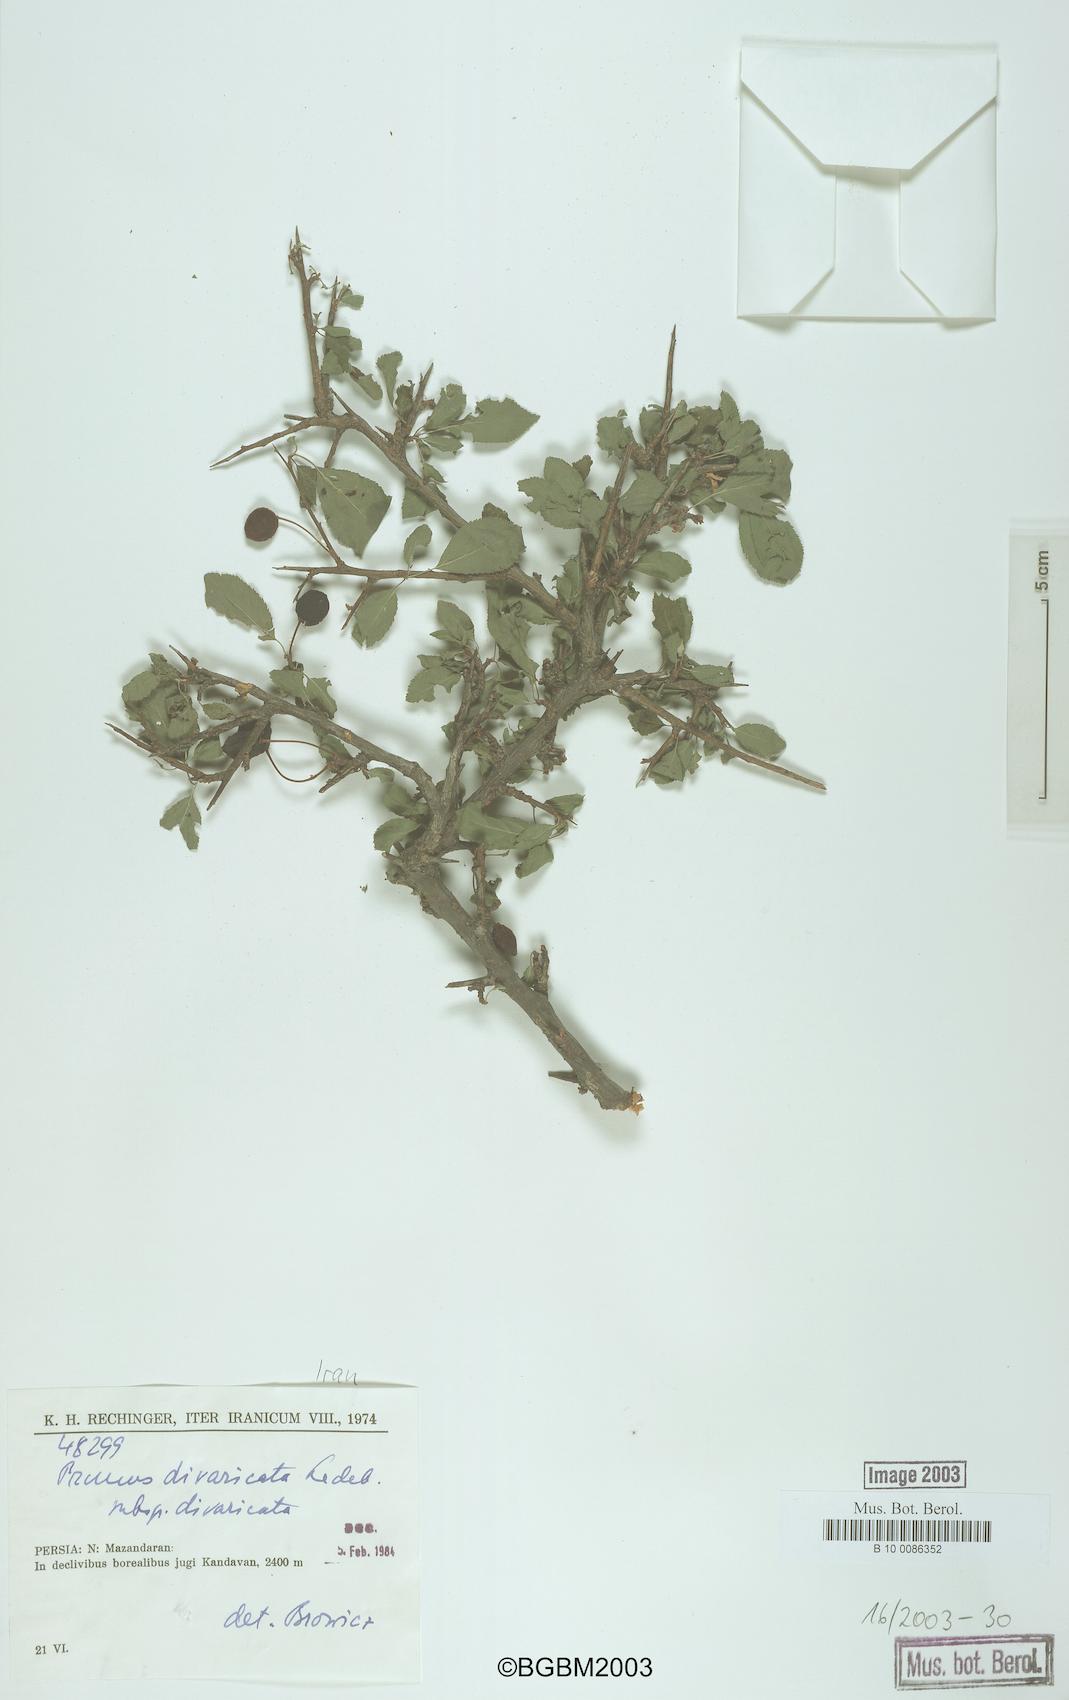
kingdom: Plantae
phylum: Tracheophyta
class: Magnoliopsida
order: Rosales
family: Rosaceae
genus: Prunus
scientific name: Prunus cerasifera
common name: Cherry plum
